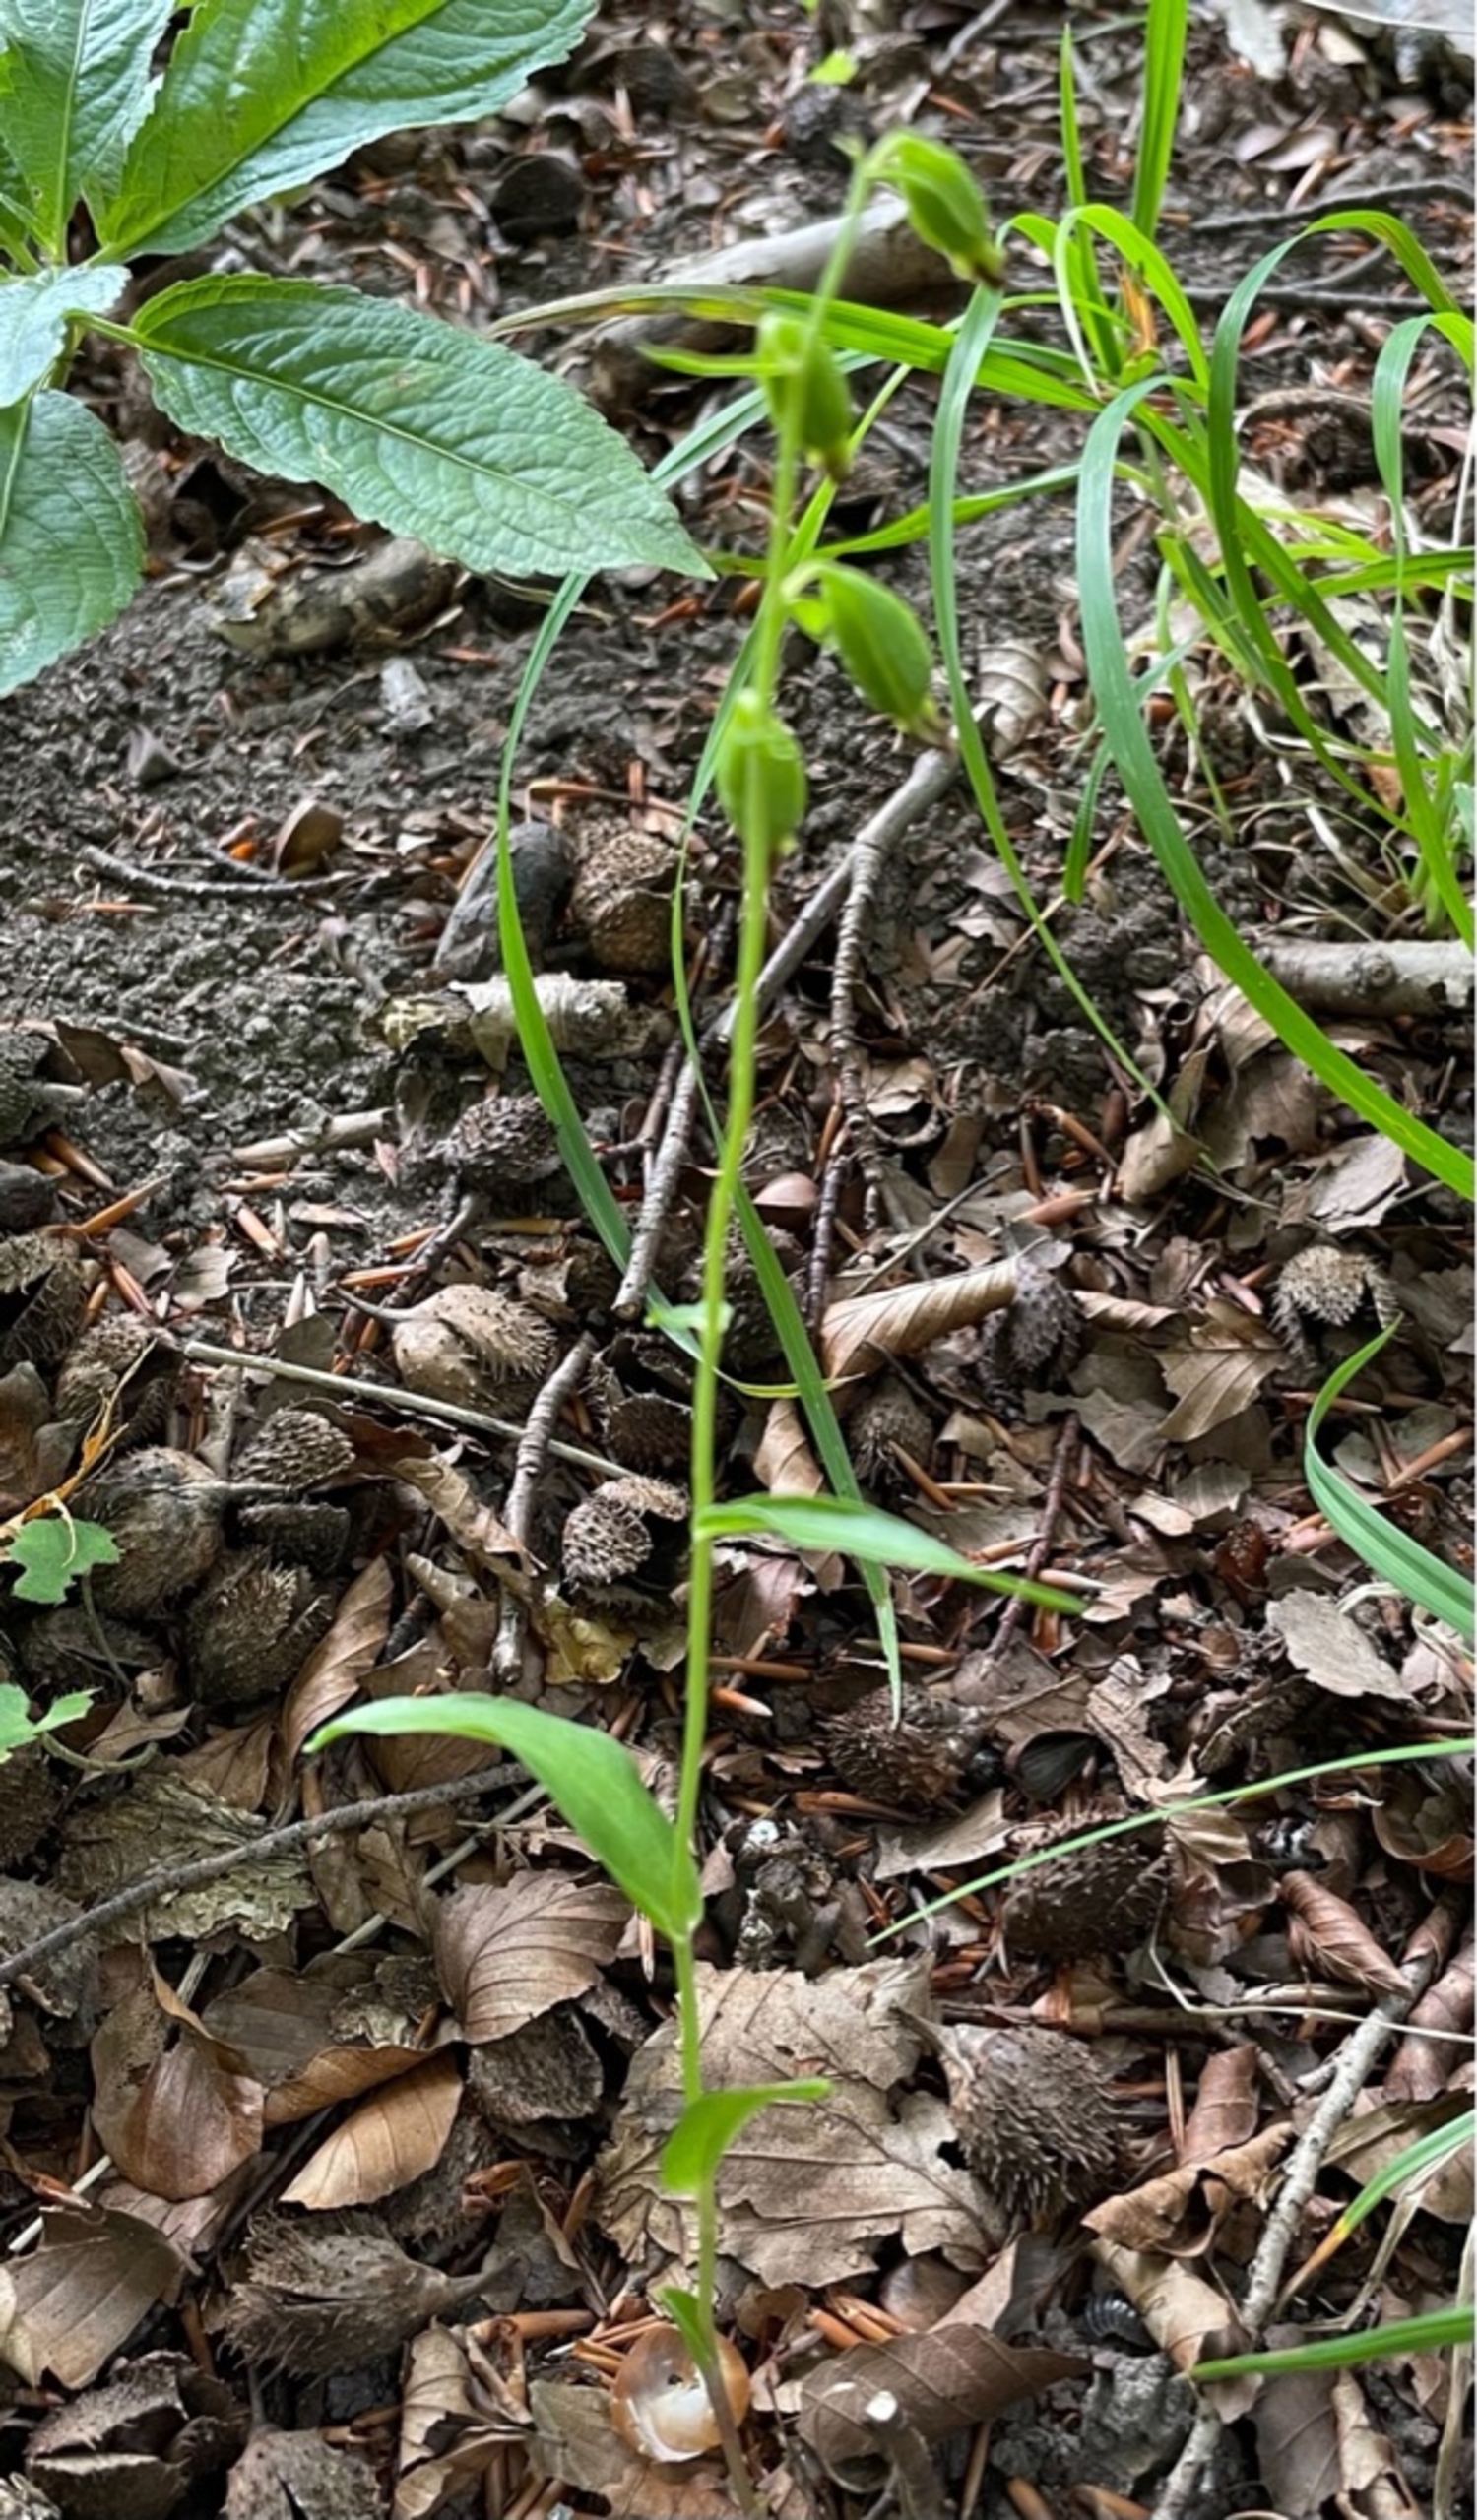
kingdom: Plantae
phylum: Tracheophyta
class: Liliopsida
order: Asparagales
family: Orchidaceae
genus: Epipactis
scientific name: Epipactis phyllanthes
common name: Nikkende hullæbe
